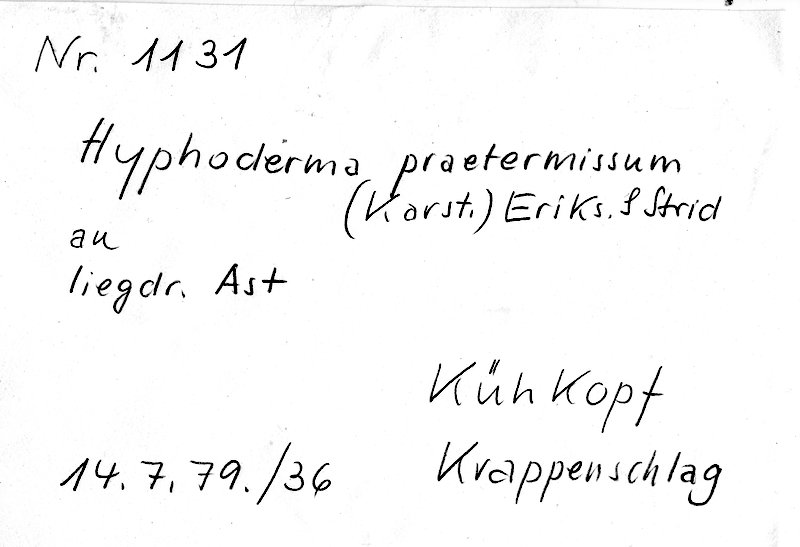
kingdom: Fungi
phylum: Basidiomycota
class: Agaricomycetes
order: Hymenochaetales
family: Rickenellaceae
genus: Peniophorella
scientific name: Peniophorella praetermissa
